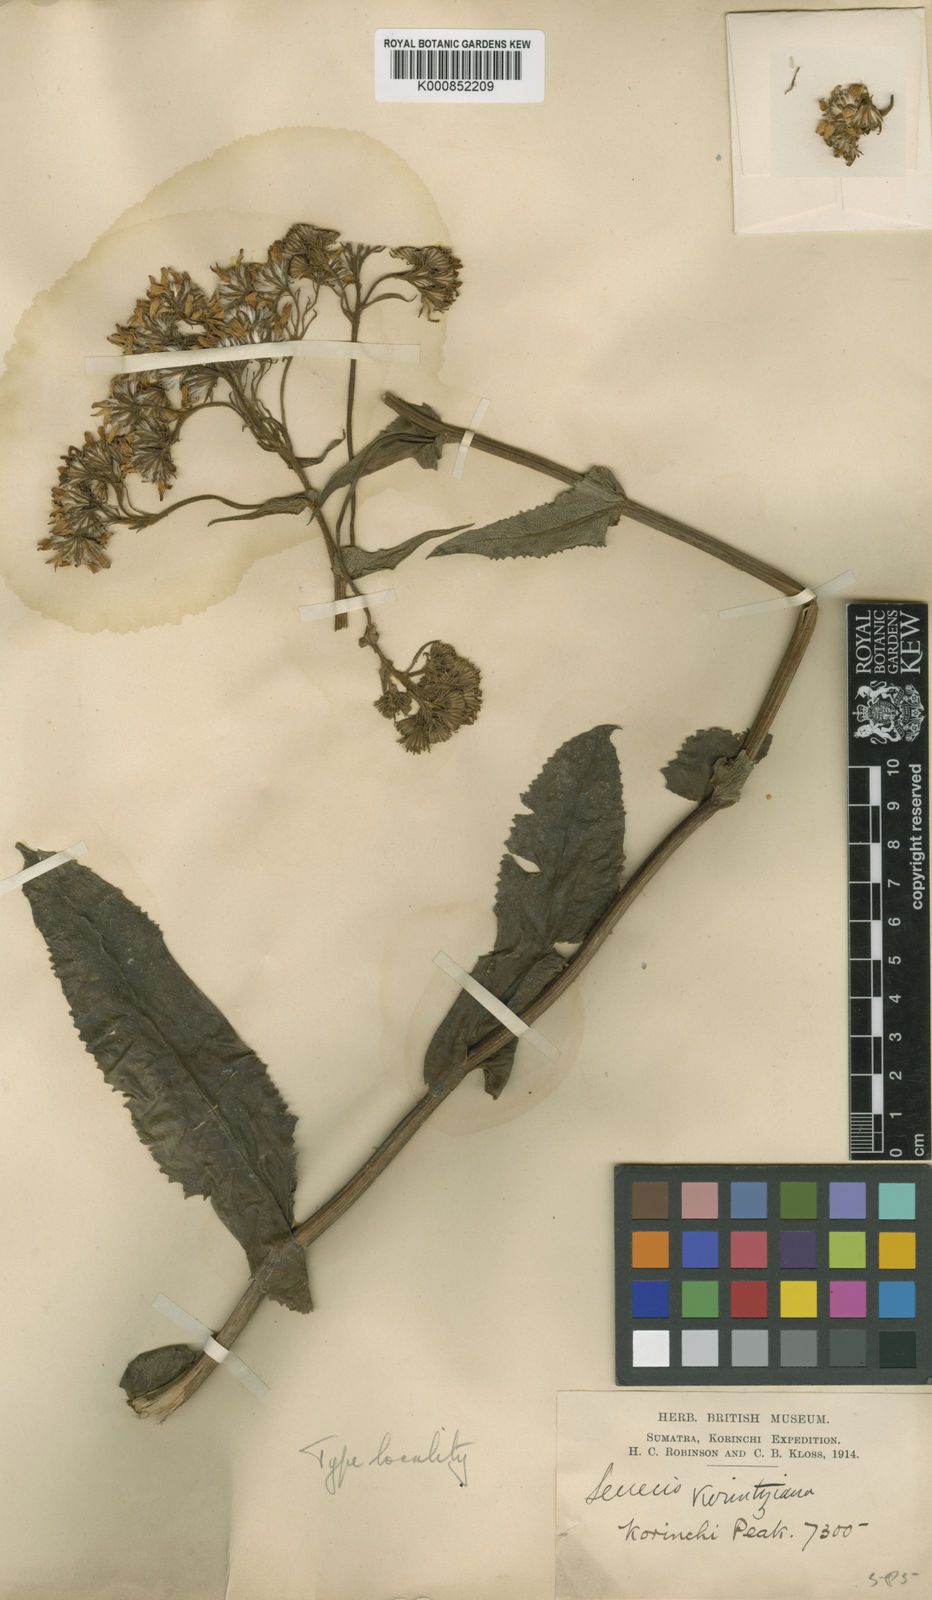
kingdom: Plantae
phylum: Tracheophyta
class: Magnoliopsida
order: Asterales
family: Asteraceae
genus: Senecio
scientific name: Senecio sumatranus
